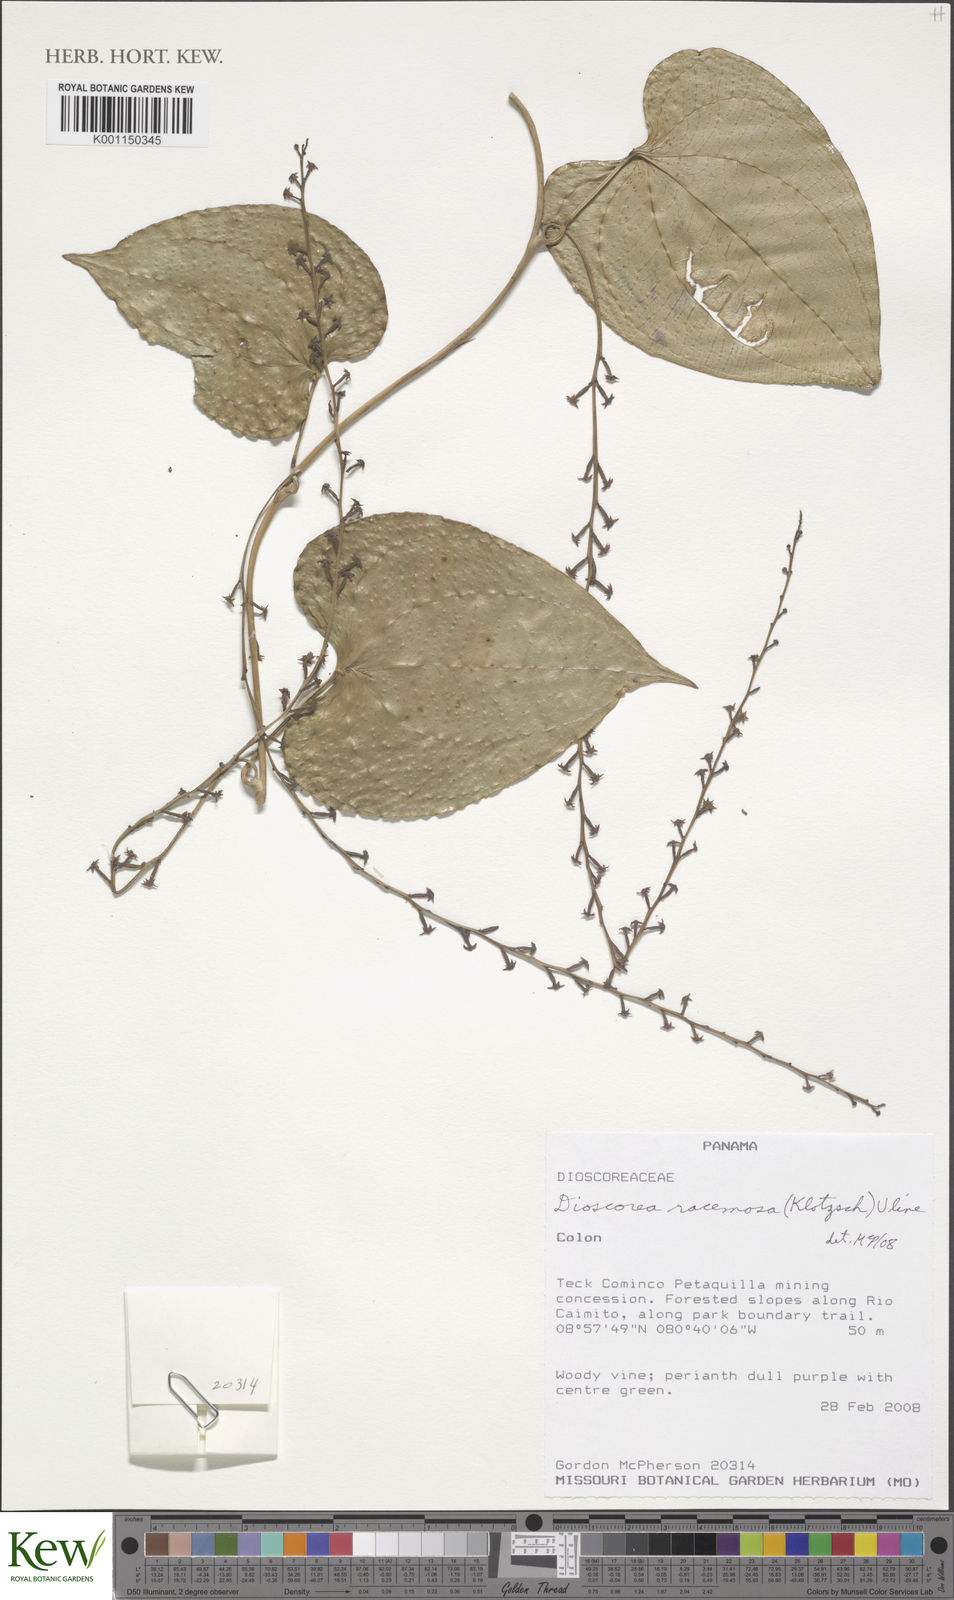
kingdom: Plantae
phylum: Tracheophyta
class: Liliopsida
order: Dioscoreales
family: Dioscoreaceae
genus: Dioscorea
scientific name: Dioscorea
